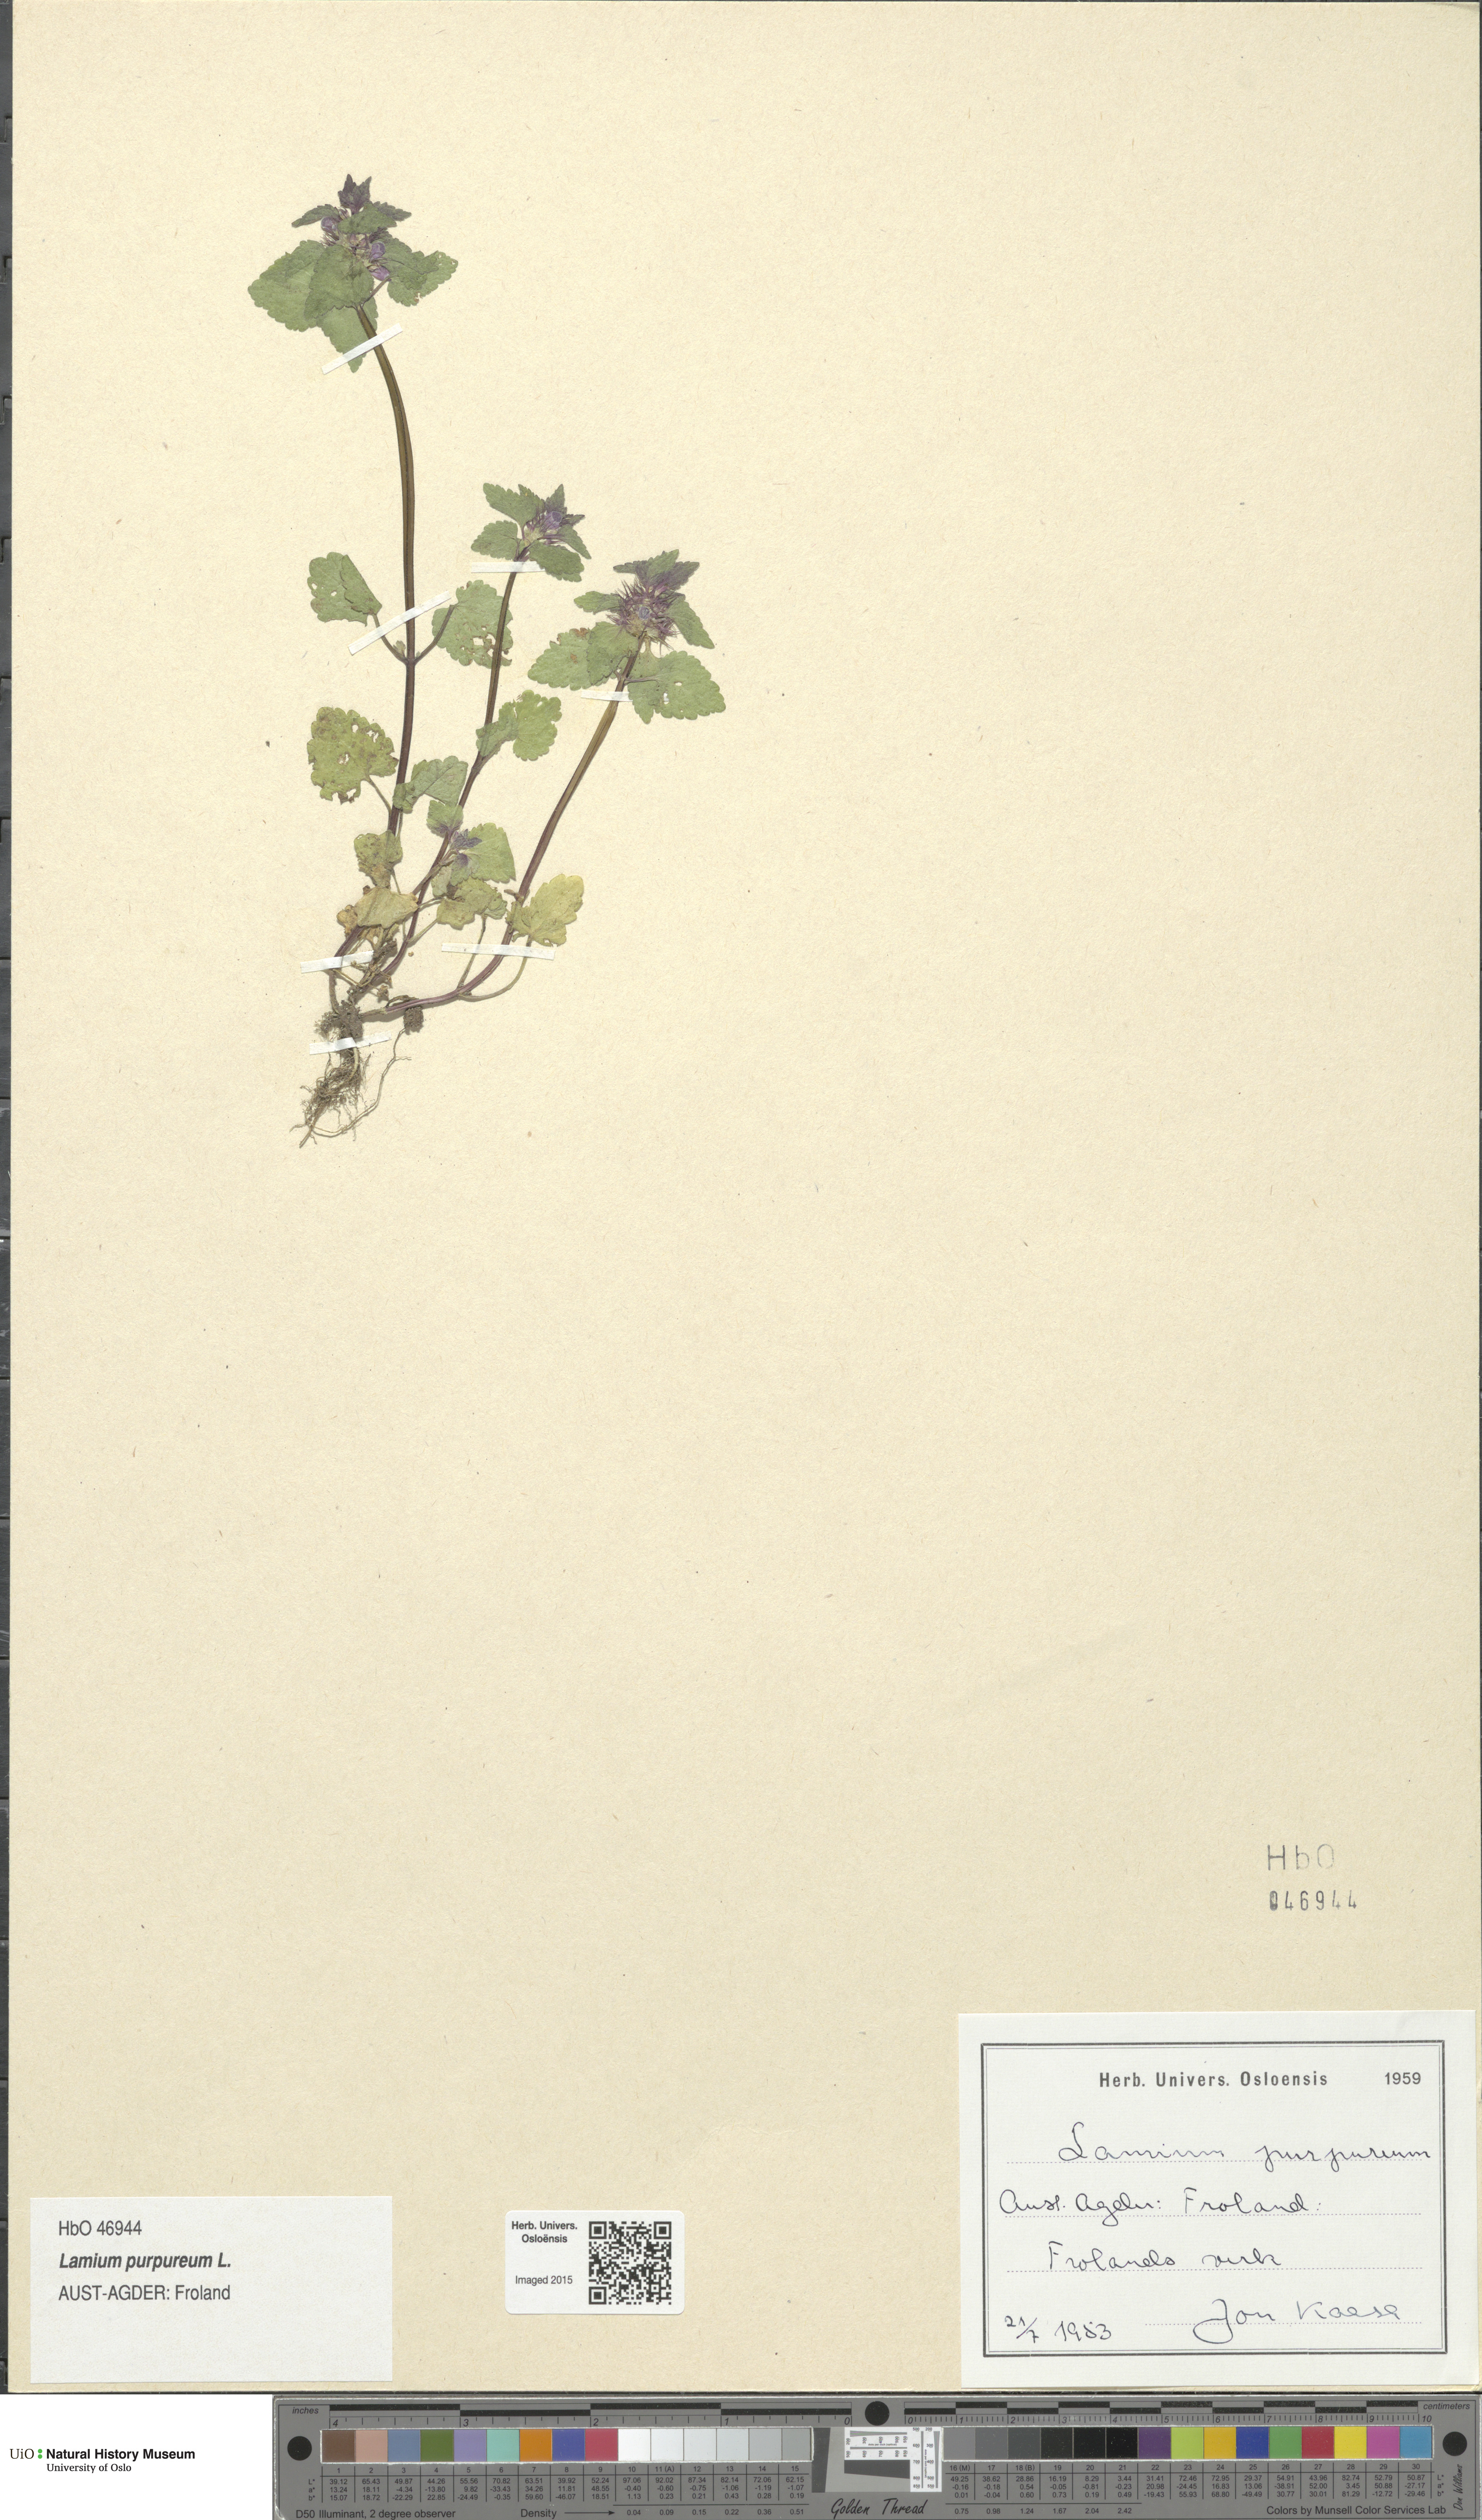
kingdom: Plantae
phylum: Tracheophyta
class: Magnoliopsida
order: Lamiales
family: Lamiaceae
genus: Lamium
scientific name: Lamium purpureum
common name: Red dead-nettle
